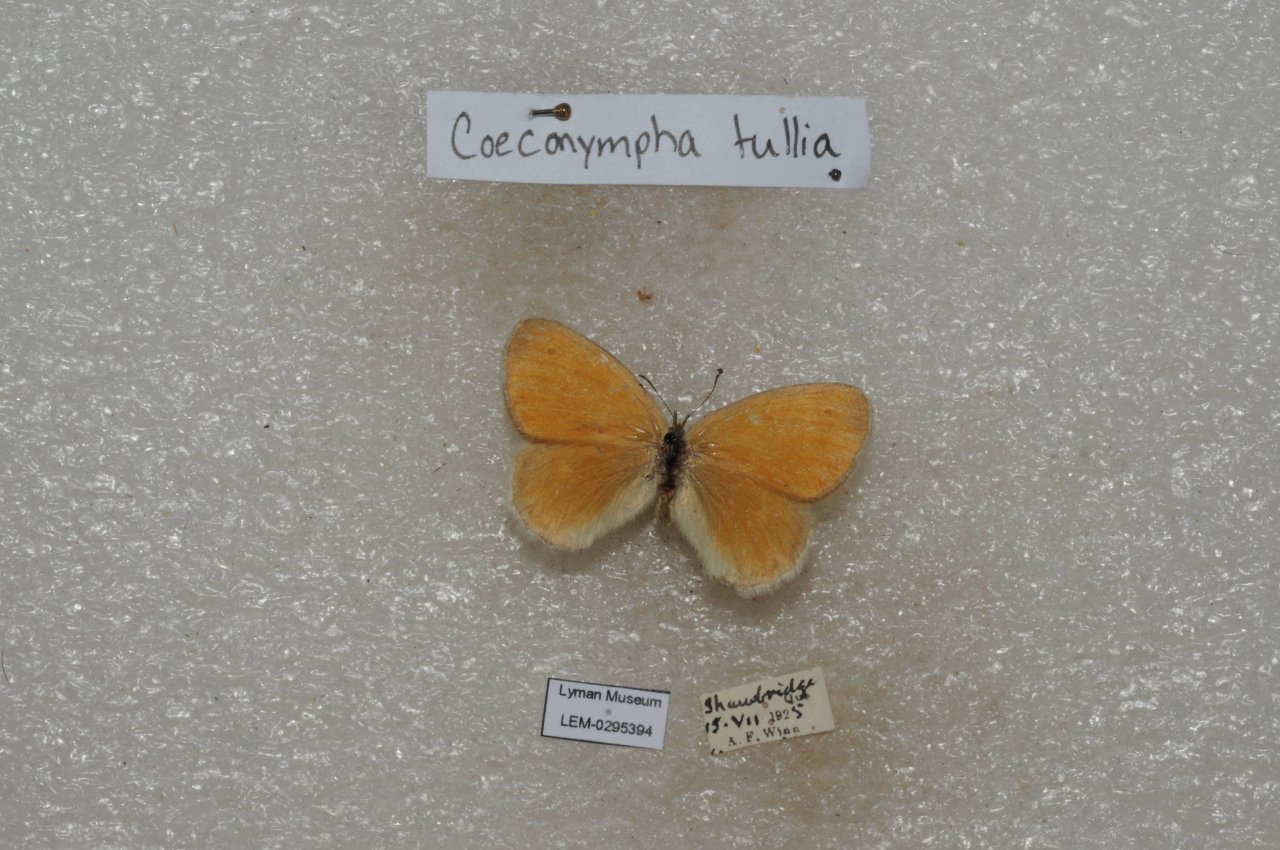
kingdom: Animalia
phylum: Arthropoda
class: Insecta
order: Lepidoptera
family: Nymphalidae
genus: Coenonympha
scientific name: Coenonympha tullia
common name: Large Heath
